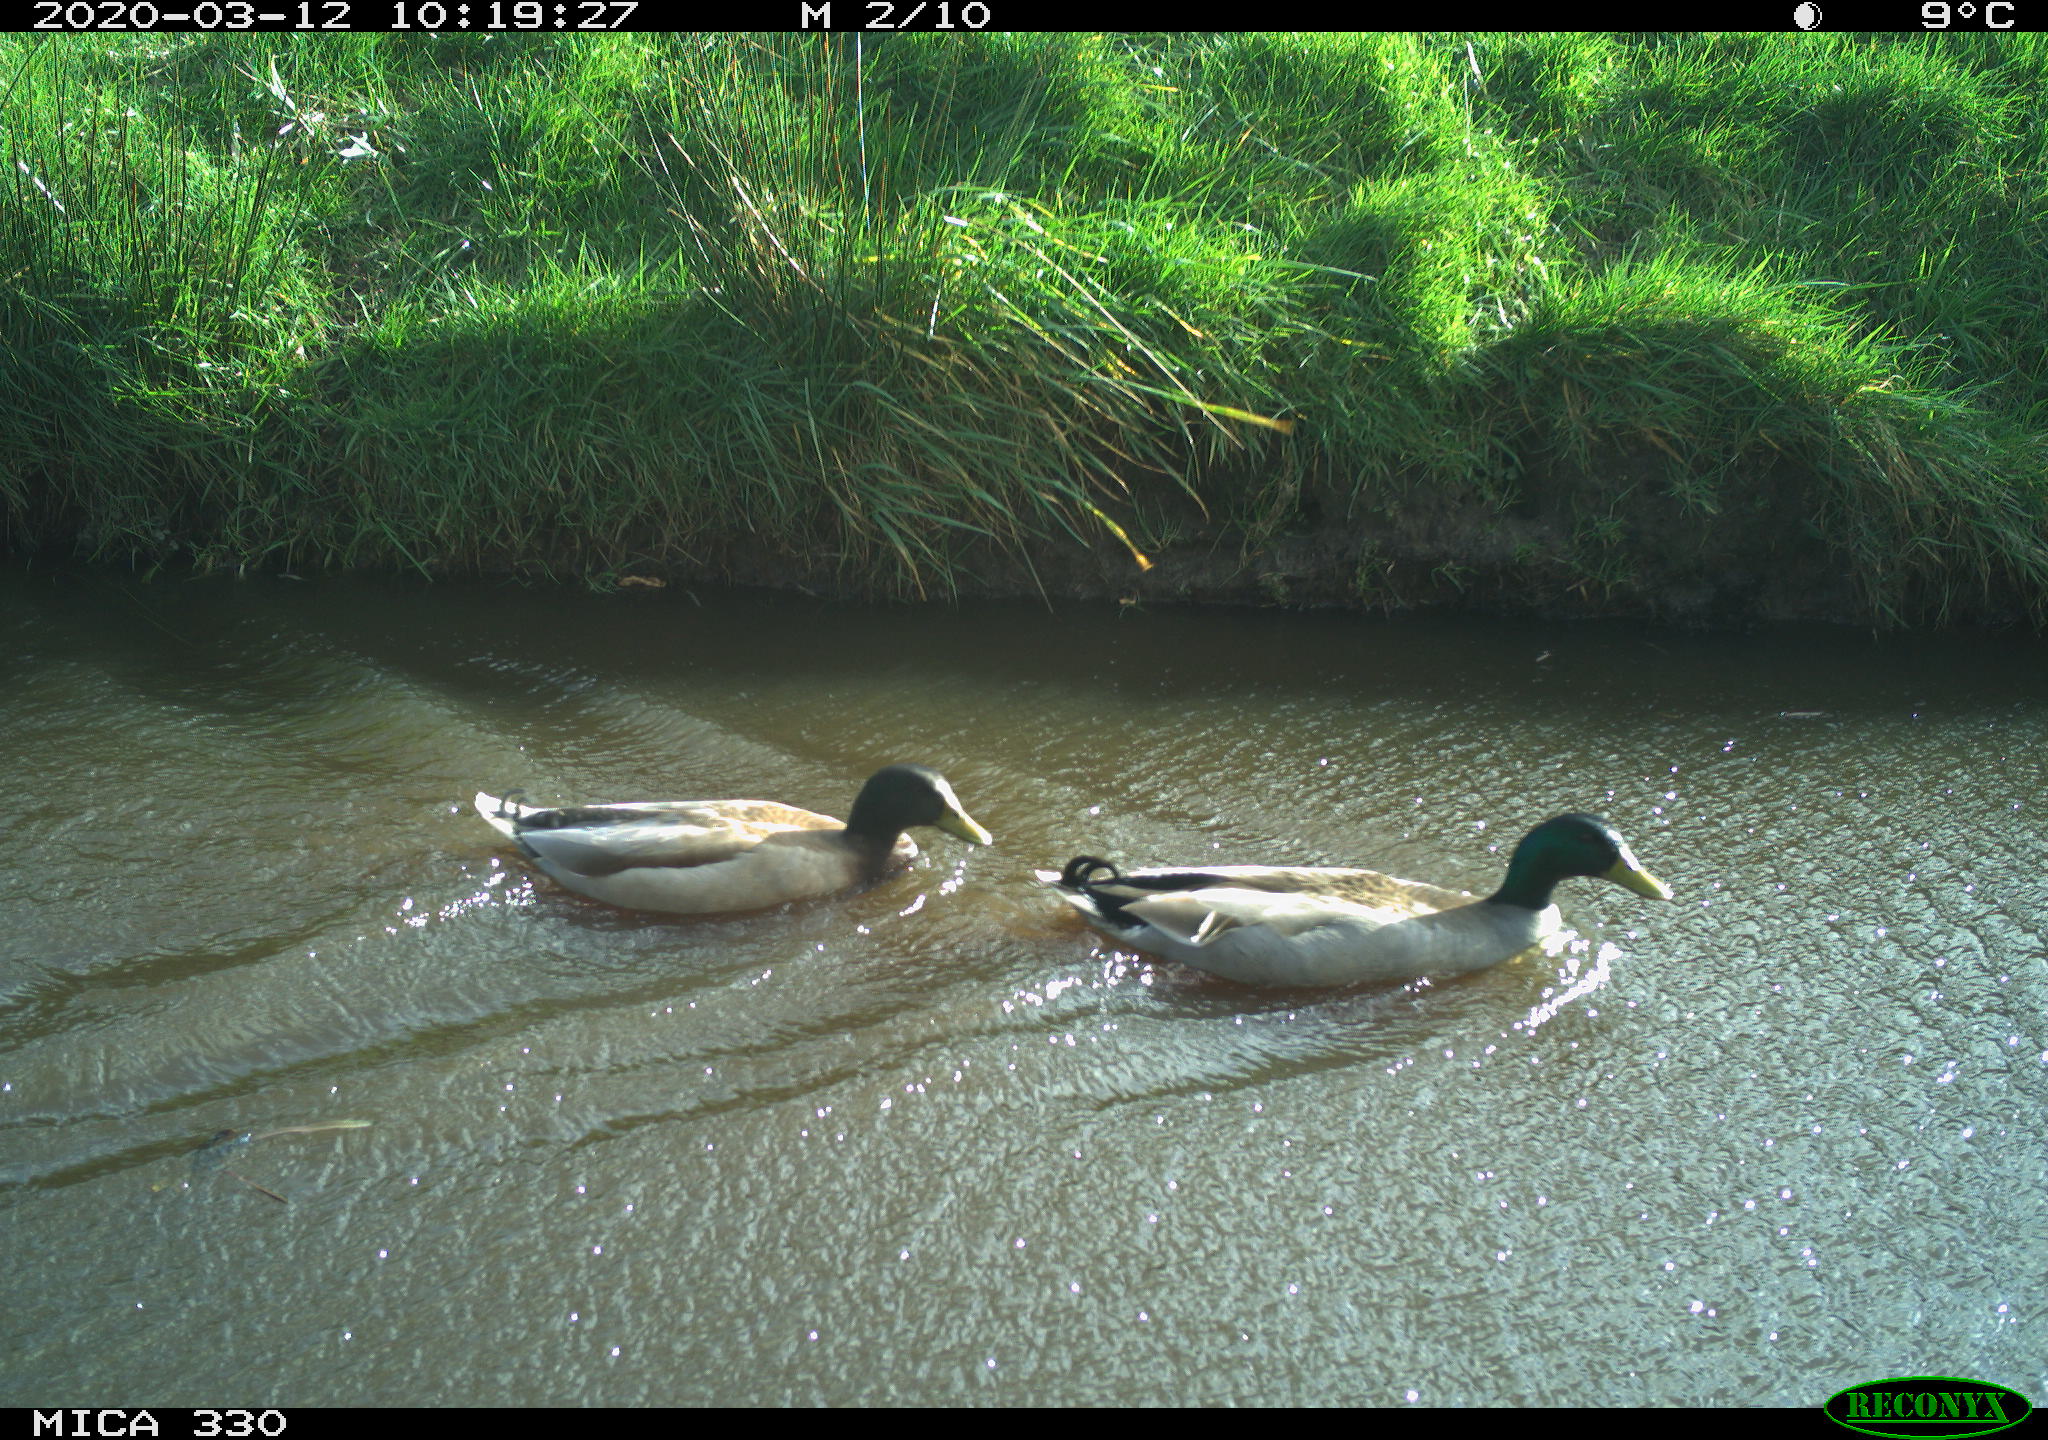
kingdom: Animalia
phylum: Chordata
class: Aves
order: Anseriformes
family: Anatidae
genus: Anas
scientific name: Anas platyrhynchos
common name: Mallard
